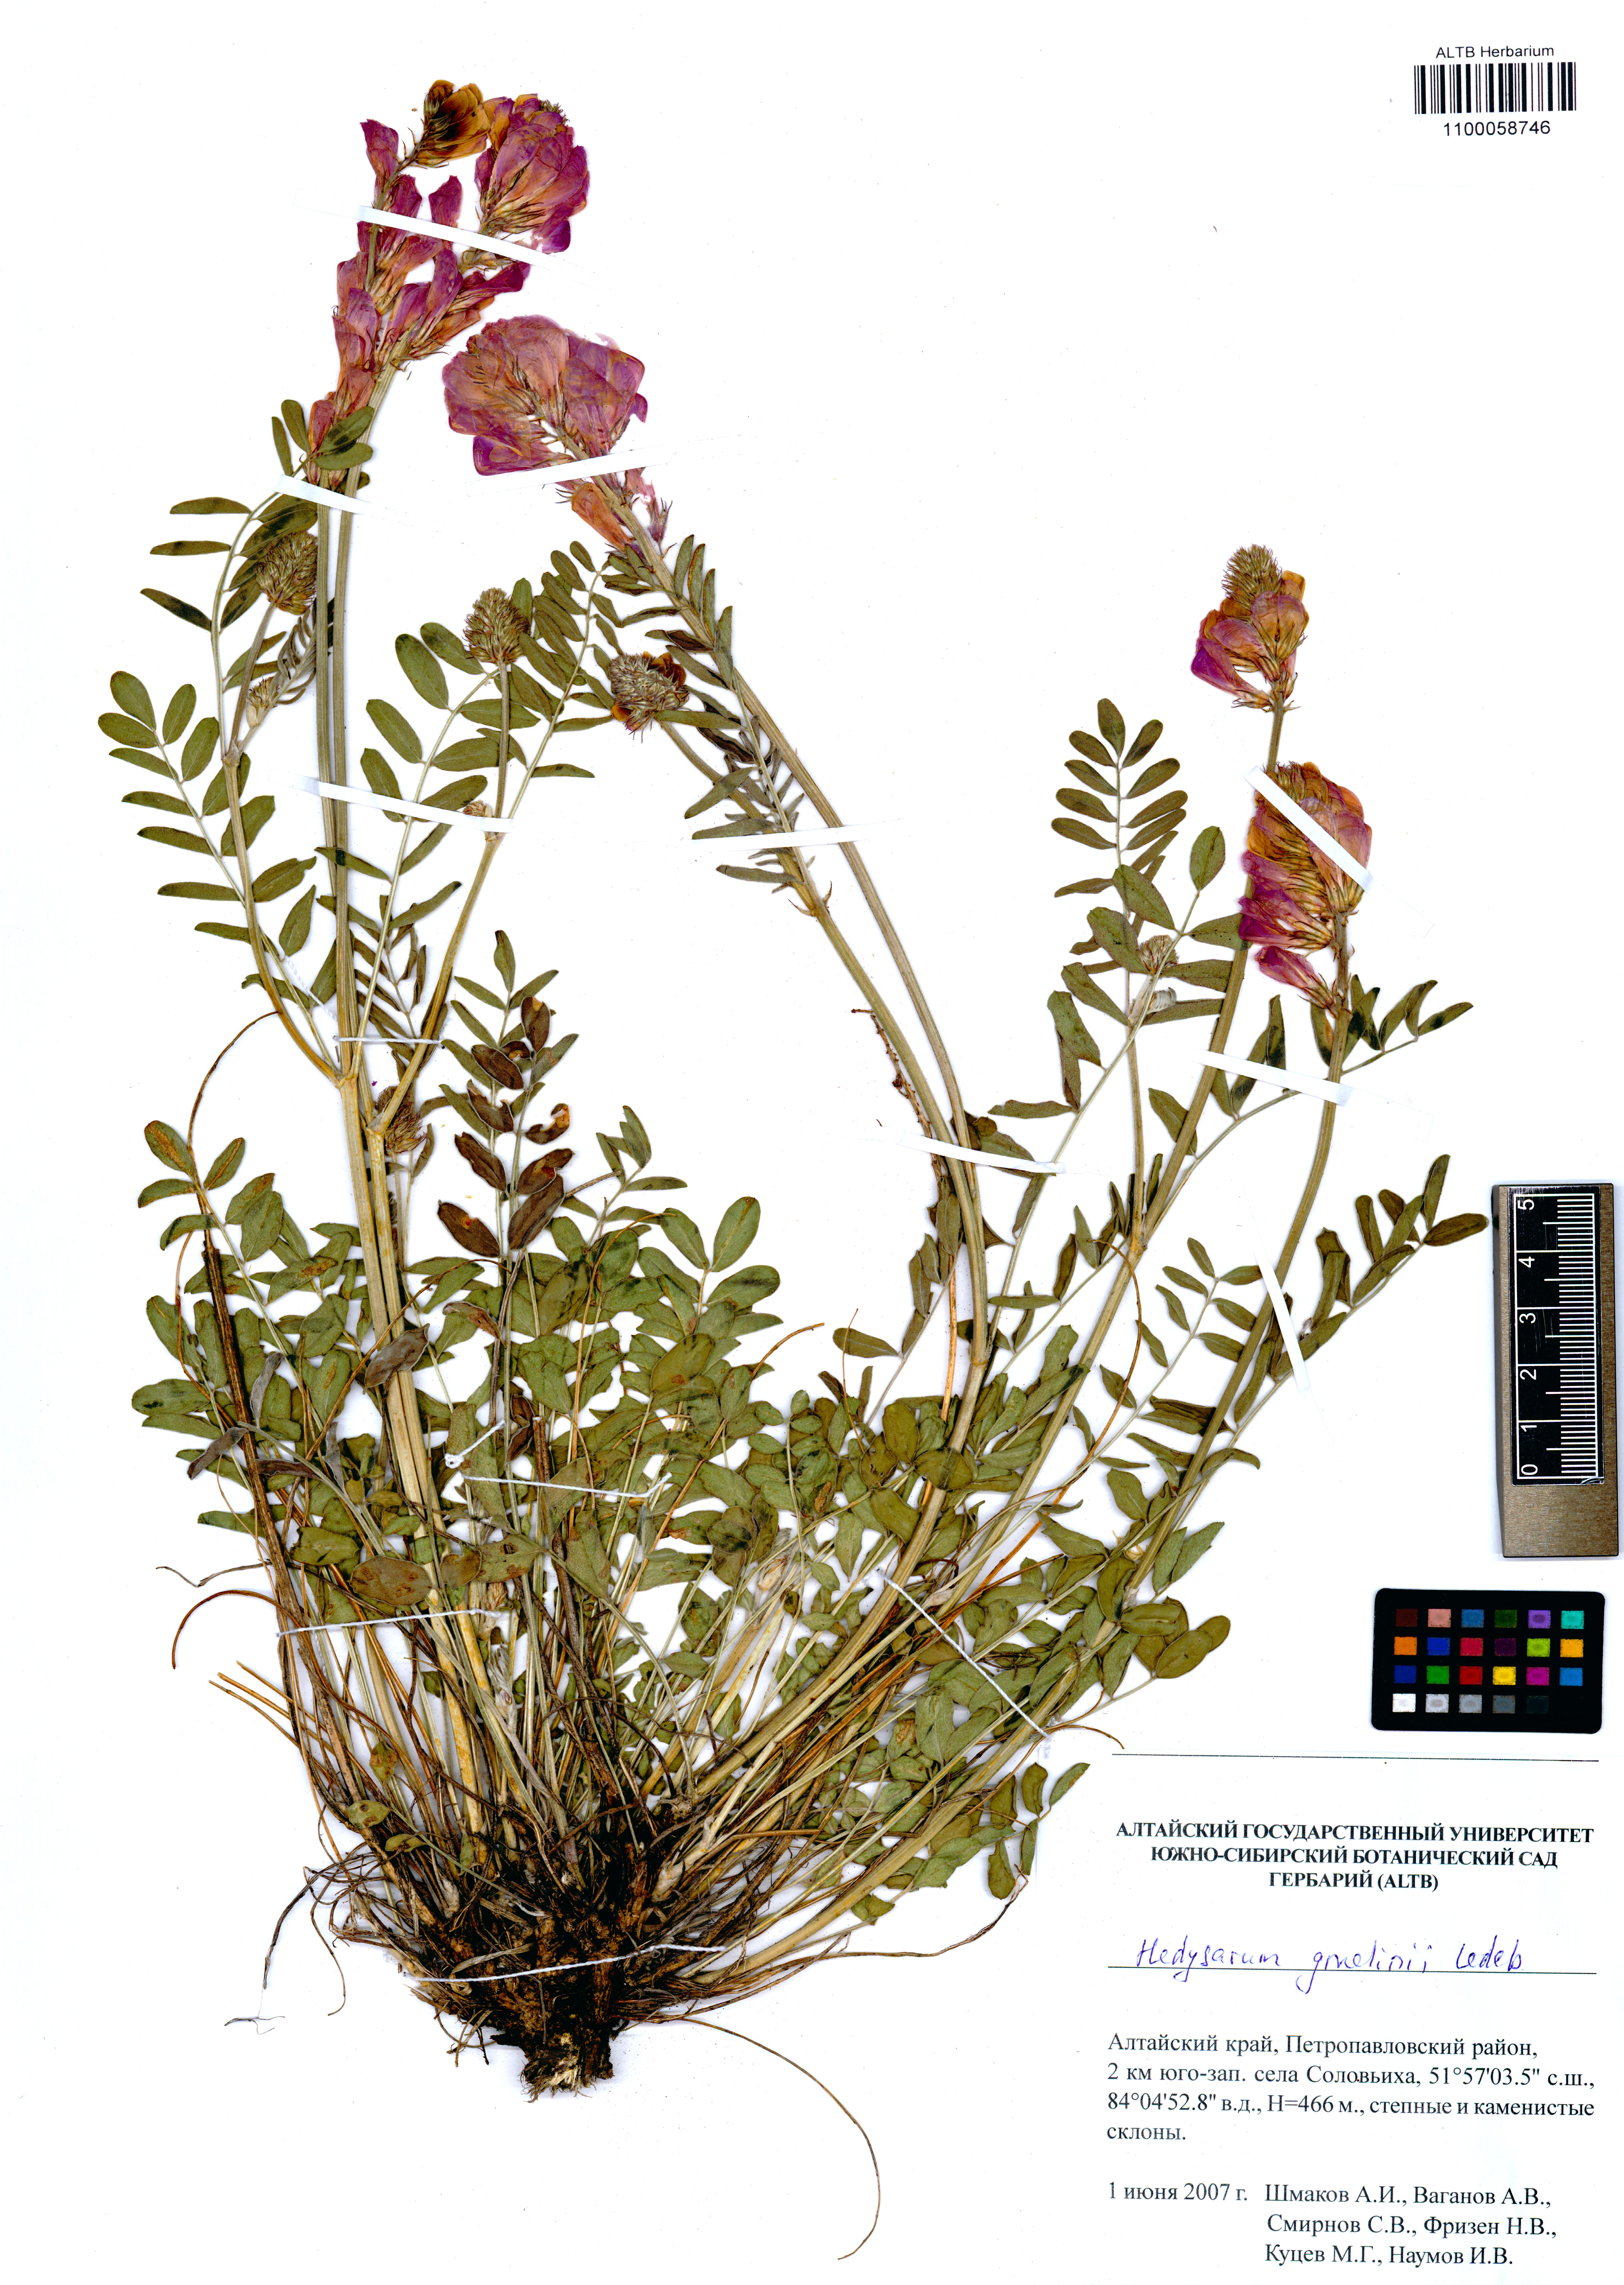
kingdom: Plantae
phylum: Tracheophyta
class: Magnoliopsida
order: Fabales
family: Fabaceae
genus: Hedysarum
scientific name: Hedysarum gmelinii
